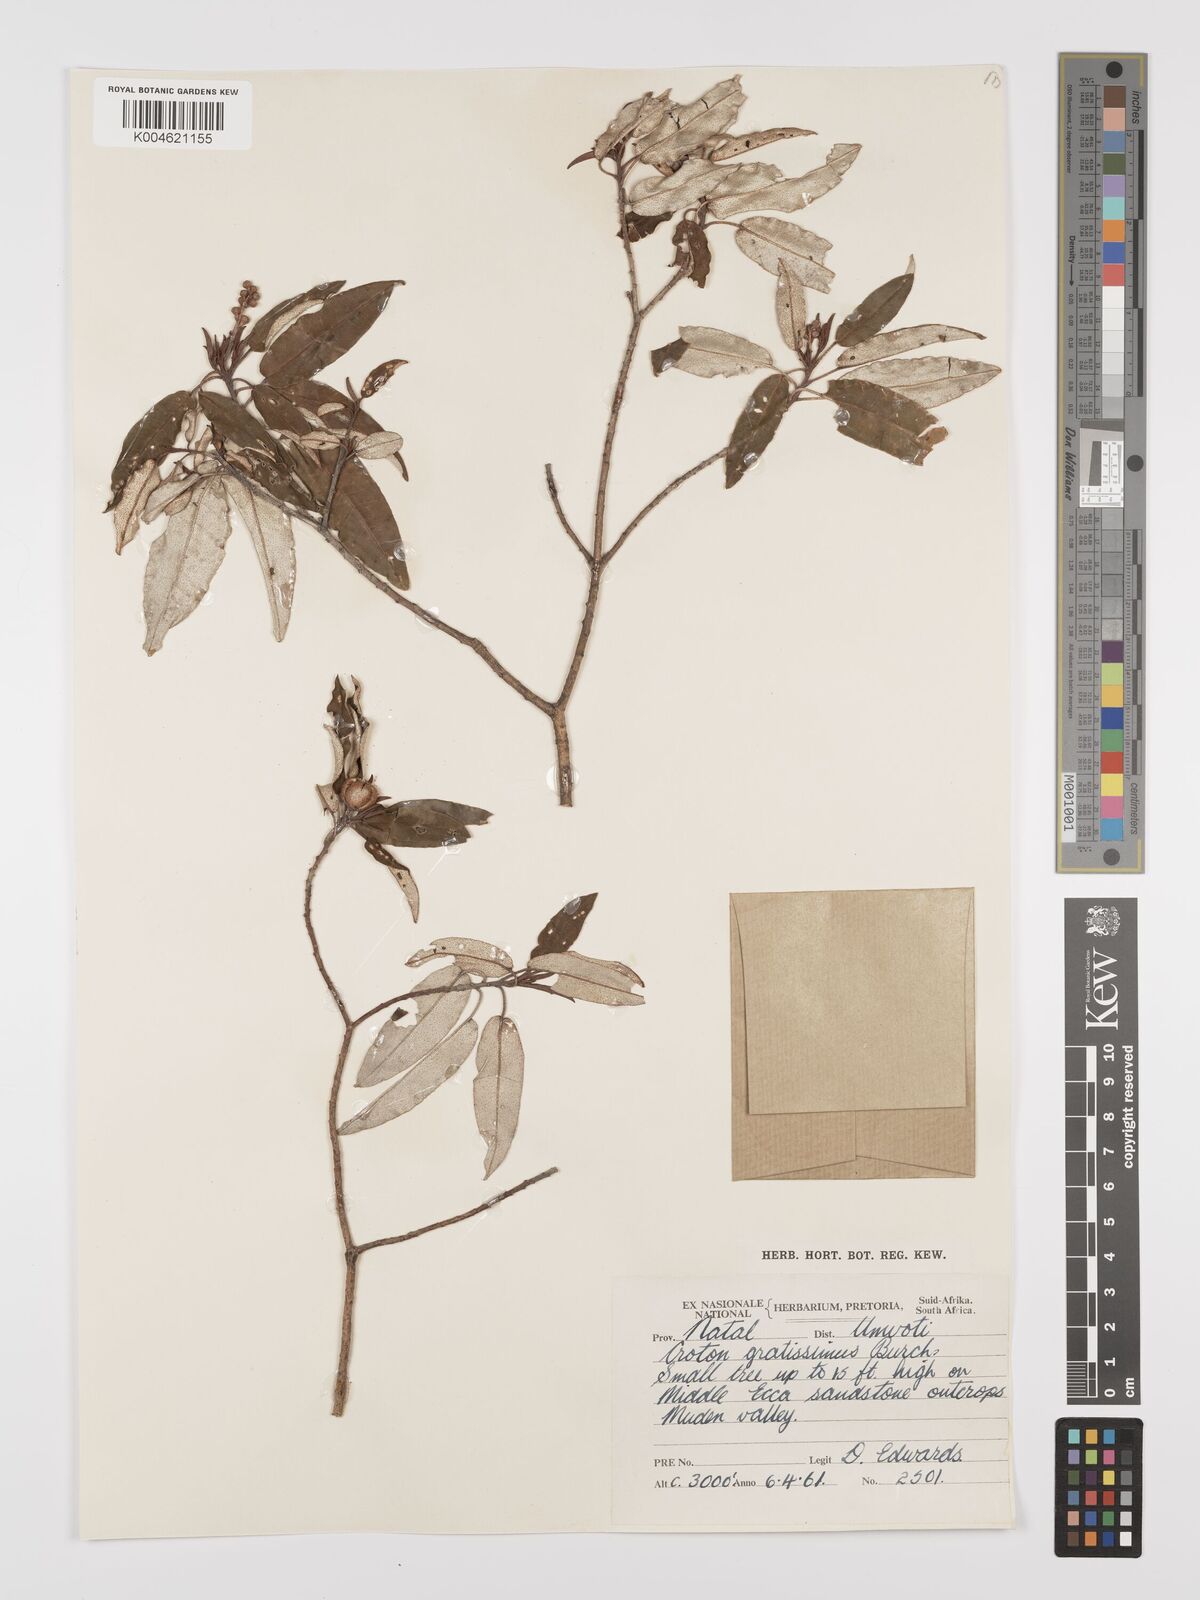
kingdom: Plantae
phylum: Tracheophyta
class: Magnoliopsida
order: Malpighiales
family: Euphorbiaceae
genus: Croton
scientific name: Croton gratissimus
